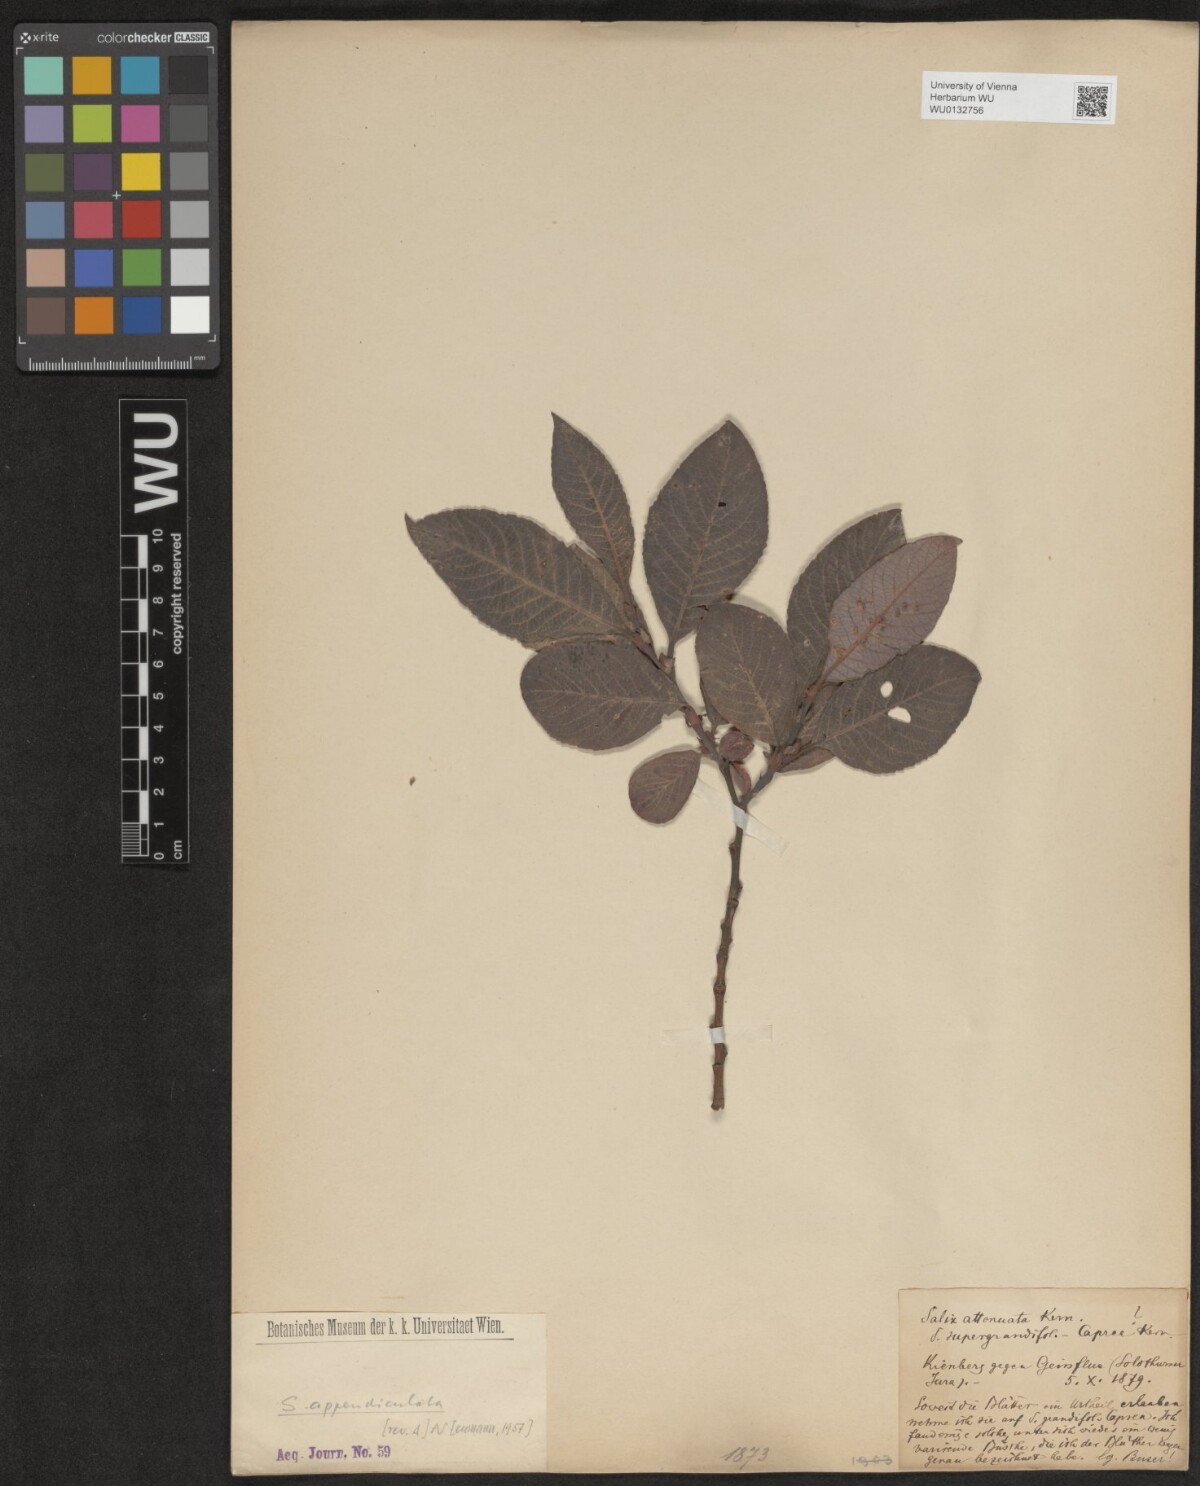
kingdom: Plantae
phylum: Tracheophyta
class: Magnoliopsida
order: Malpighiales
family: Salicaceae
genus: Salix
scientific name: Salix appendiculata
